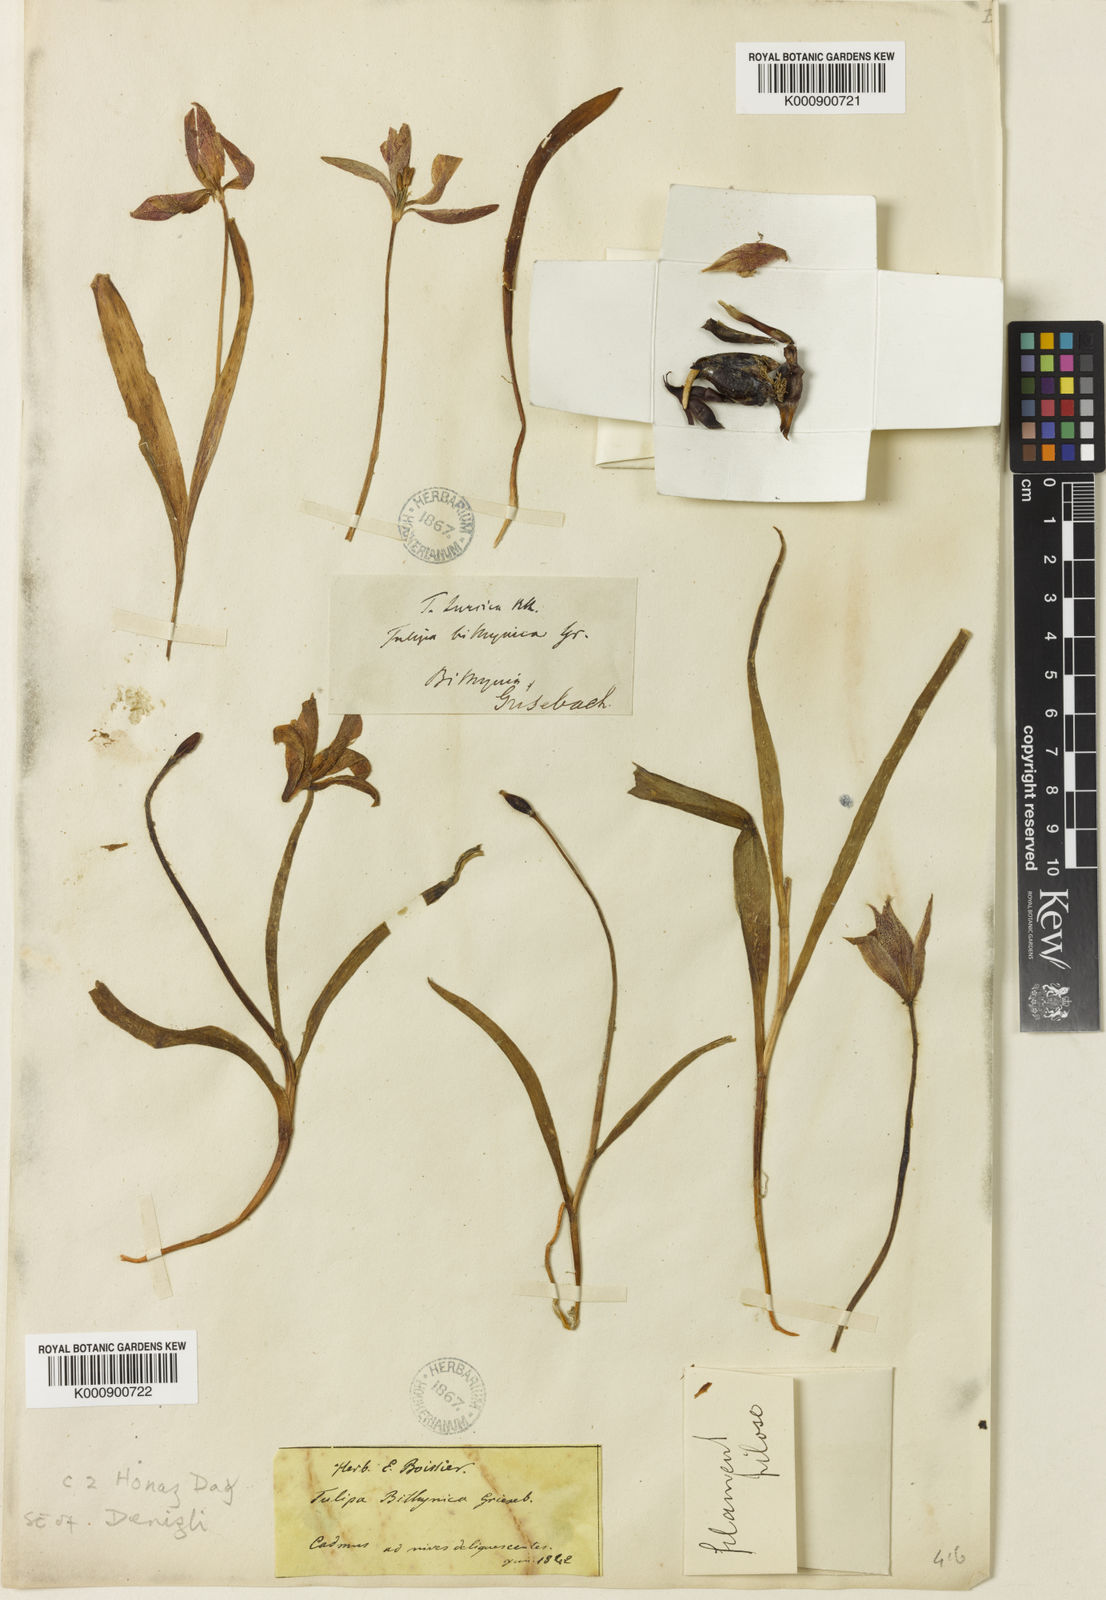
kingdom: Plantae
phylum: Tracheophyta
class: Liliopsida
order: Liliales
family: Liliaceae
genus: Tulipa
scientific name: Tulipa orphanidea
